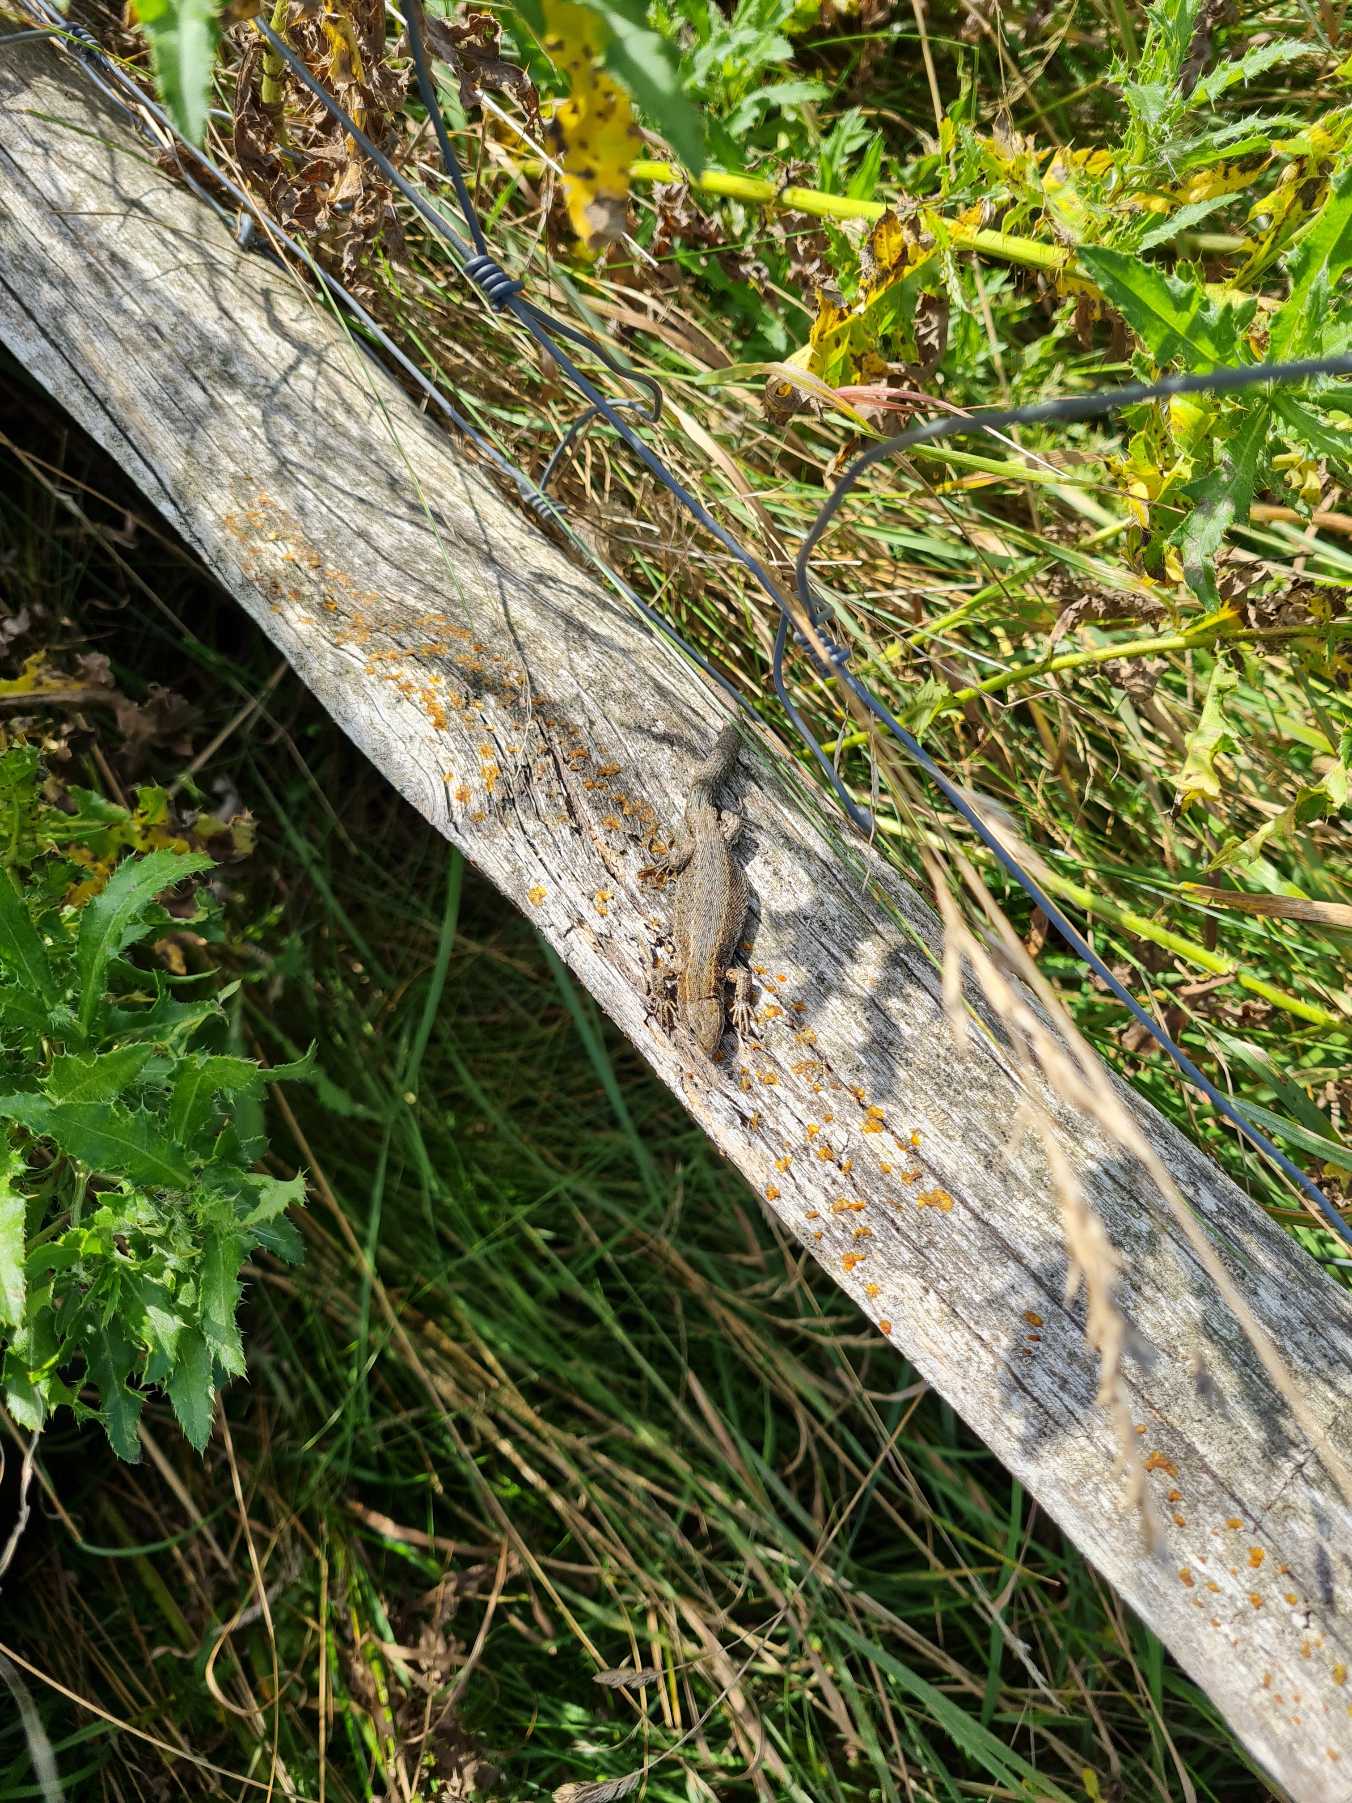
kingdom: Animalia
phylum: Chordata
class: Squamata
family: Lacertidae
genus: Zootoca
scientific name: Zootoca vivipara
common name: Skovfirben
